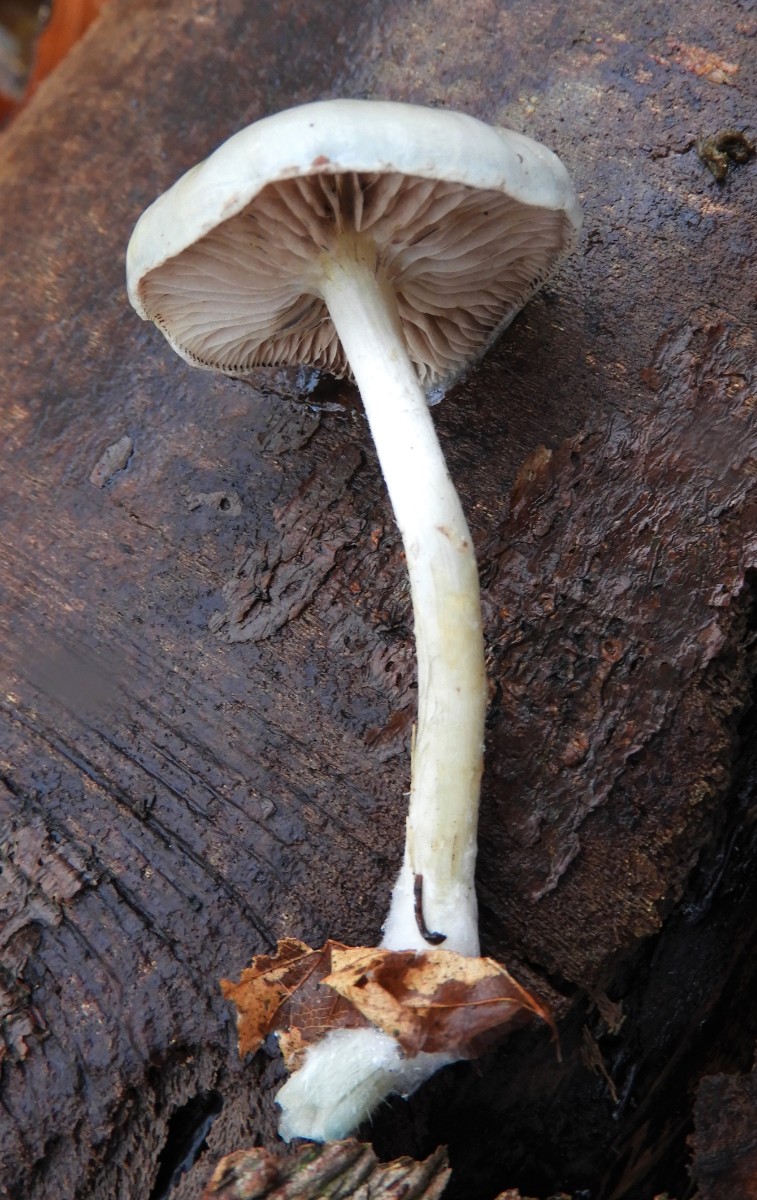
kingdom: Fungi
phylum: Basidiomycota
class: Agaricomycetes
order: Agaricales
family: Strophariaceae
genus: Stropharia
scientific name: Stropharia cyanea
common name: blågrøn bredblad
